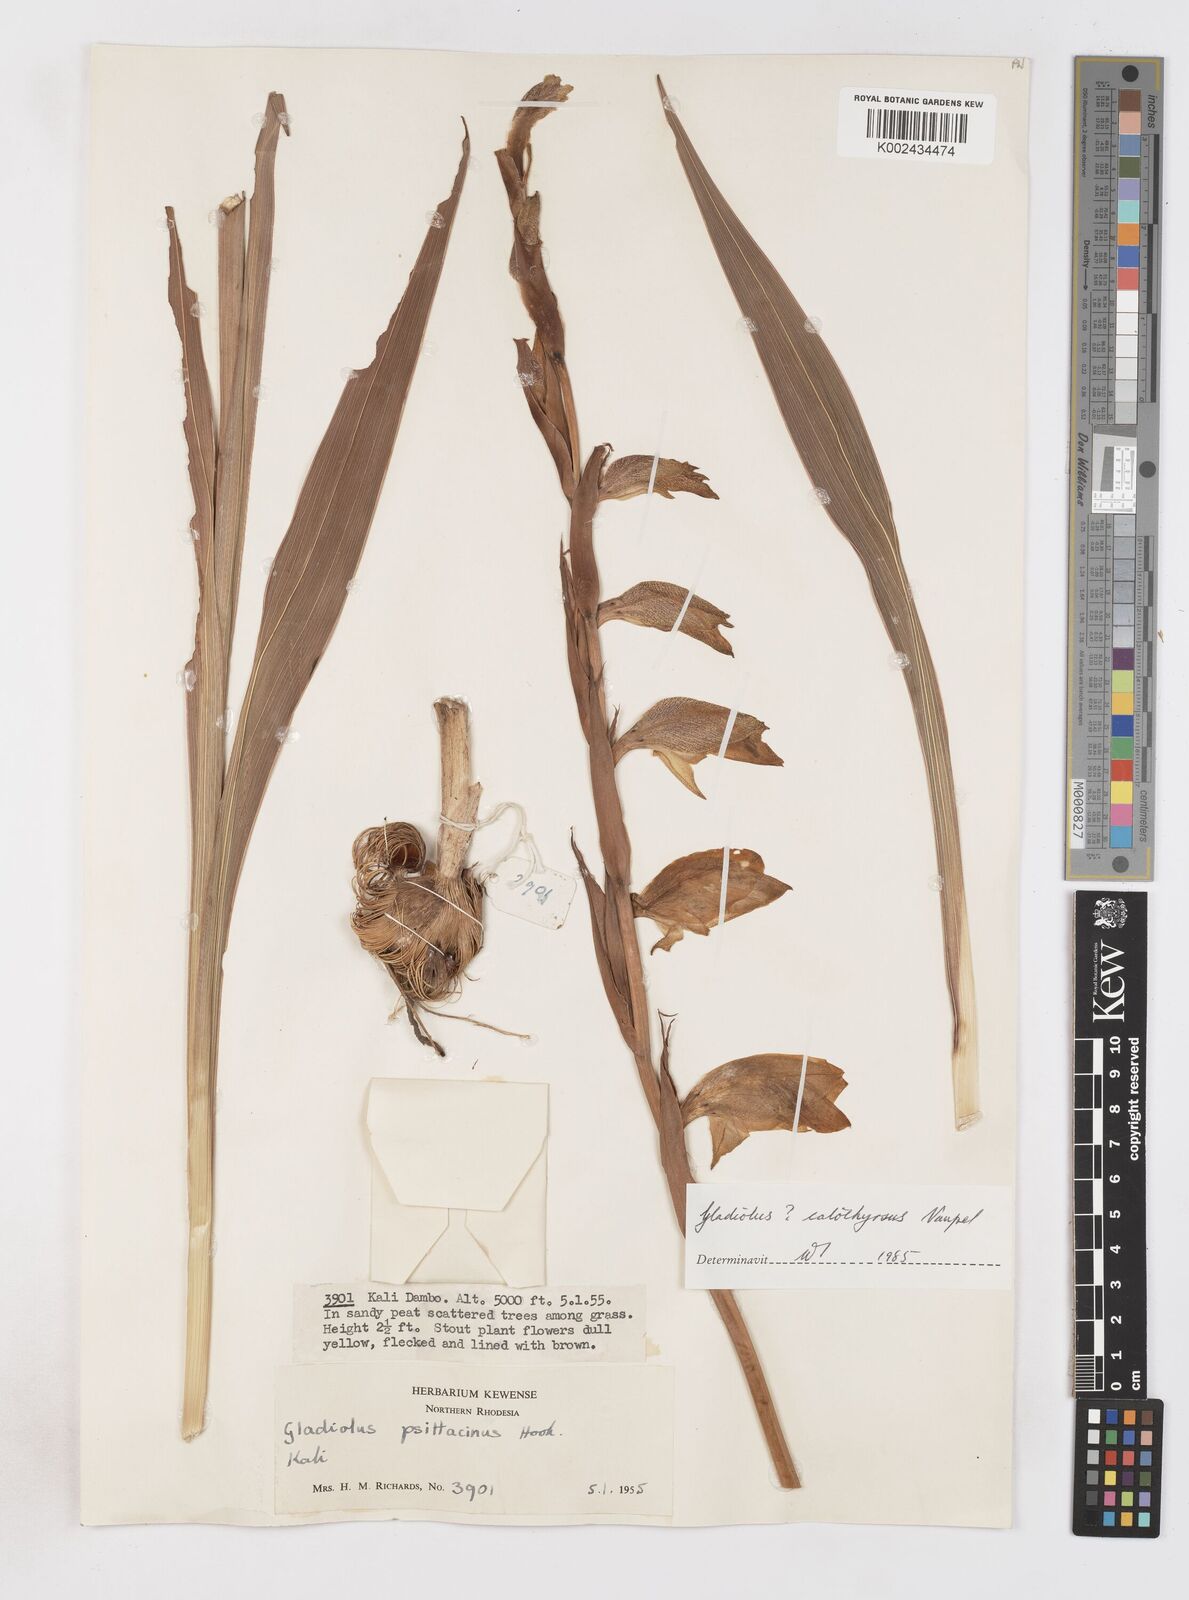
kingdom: Plantae
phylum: Tracheophyta
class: Liliopsida
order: Asparagales
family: Iridaceae
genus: Gladiolus
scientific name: Gladiolus dalenii
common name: Cornflag
